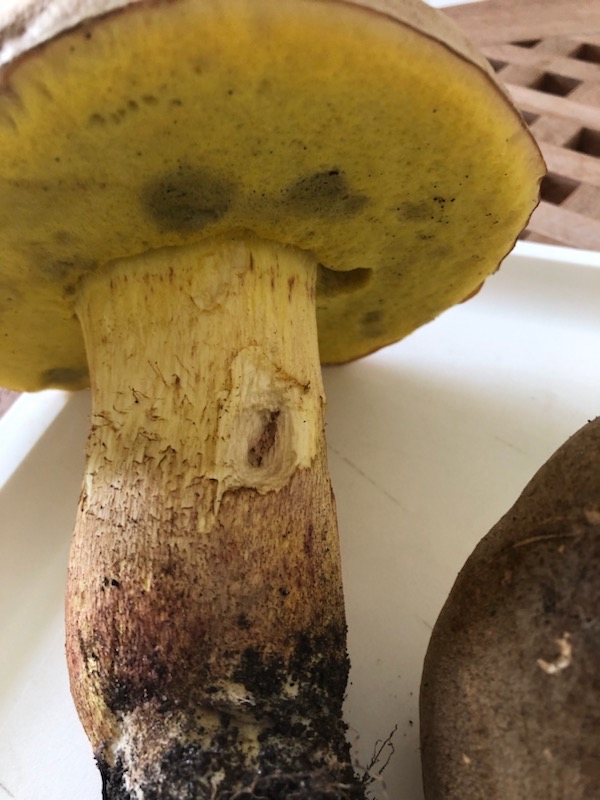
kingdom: Fungi
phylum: Basidiomycota
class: Agaricomycetes
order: Boletales
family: Boletaceae
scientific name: Boletaceae
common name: rørhatfamilien
